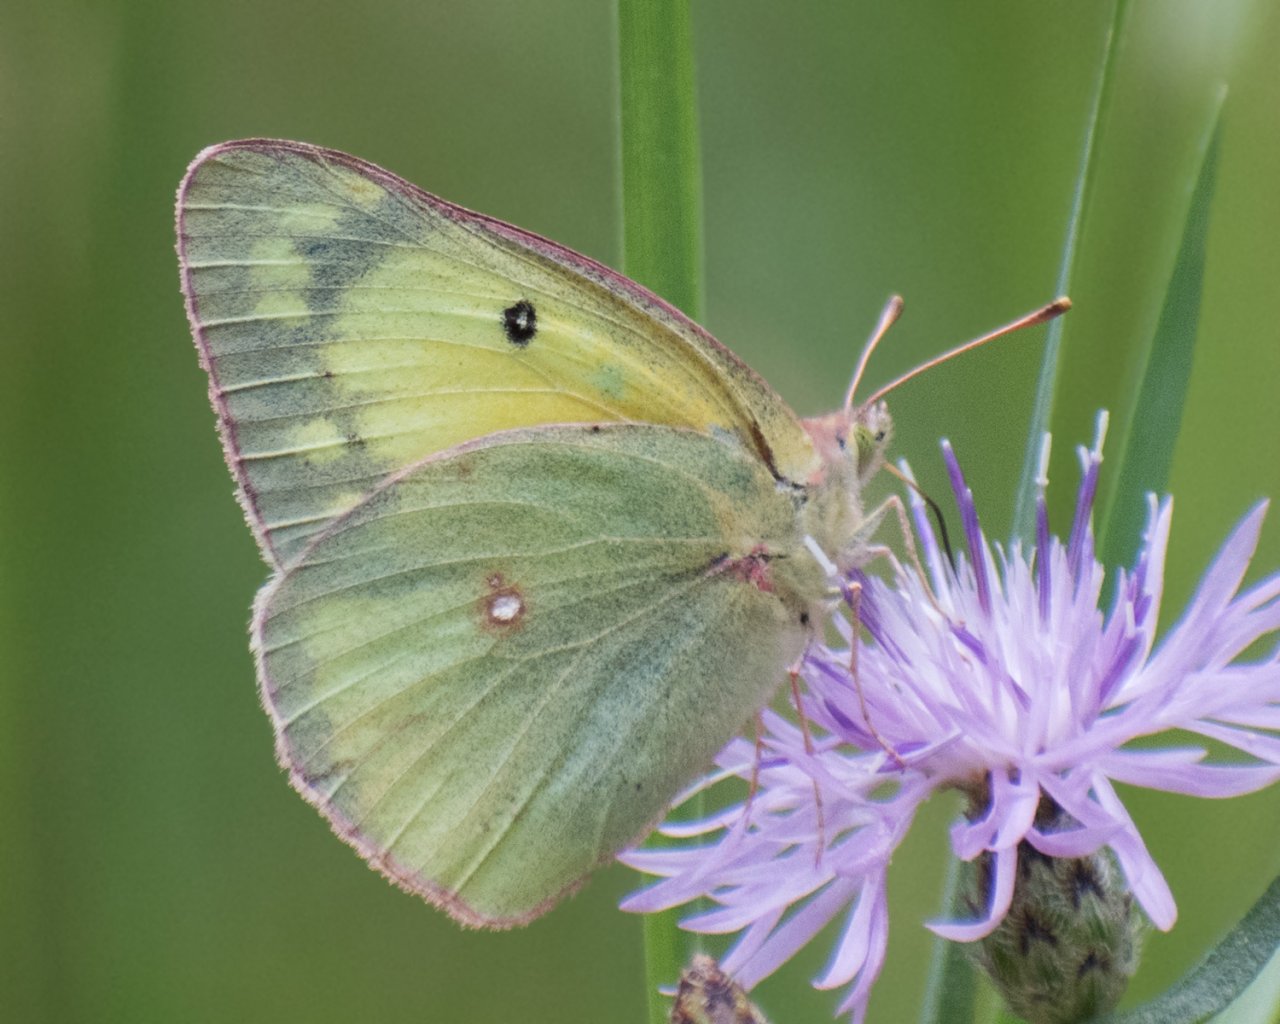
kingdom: Animalia
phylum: Arthropoda
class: Insecta
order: Lepidoptera
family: Pieridae
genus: Colias
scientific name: Colias eurytheme
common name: Orange Sulphur
